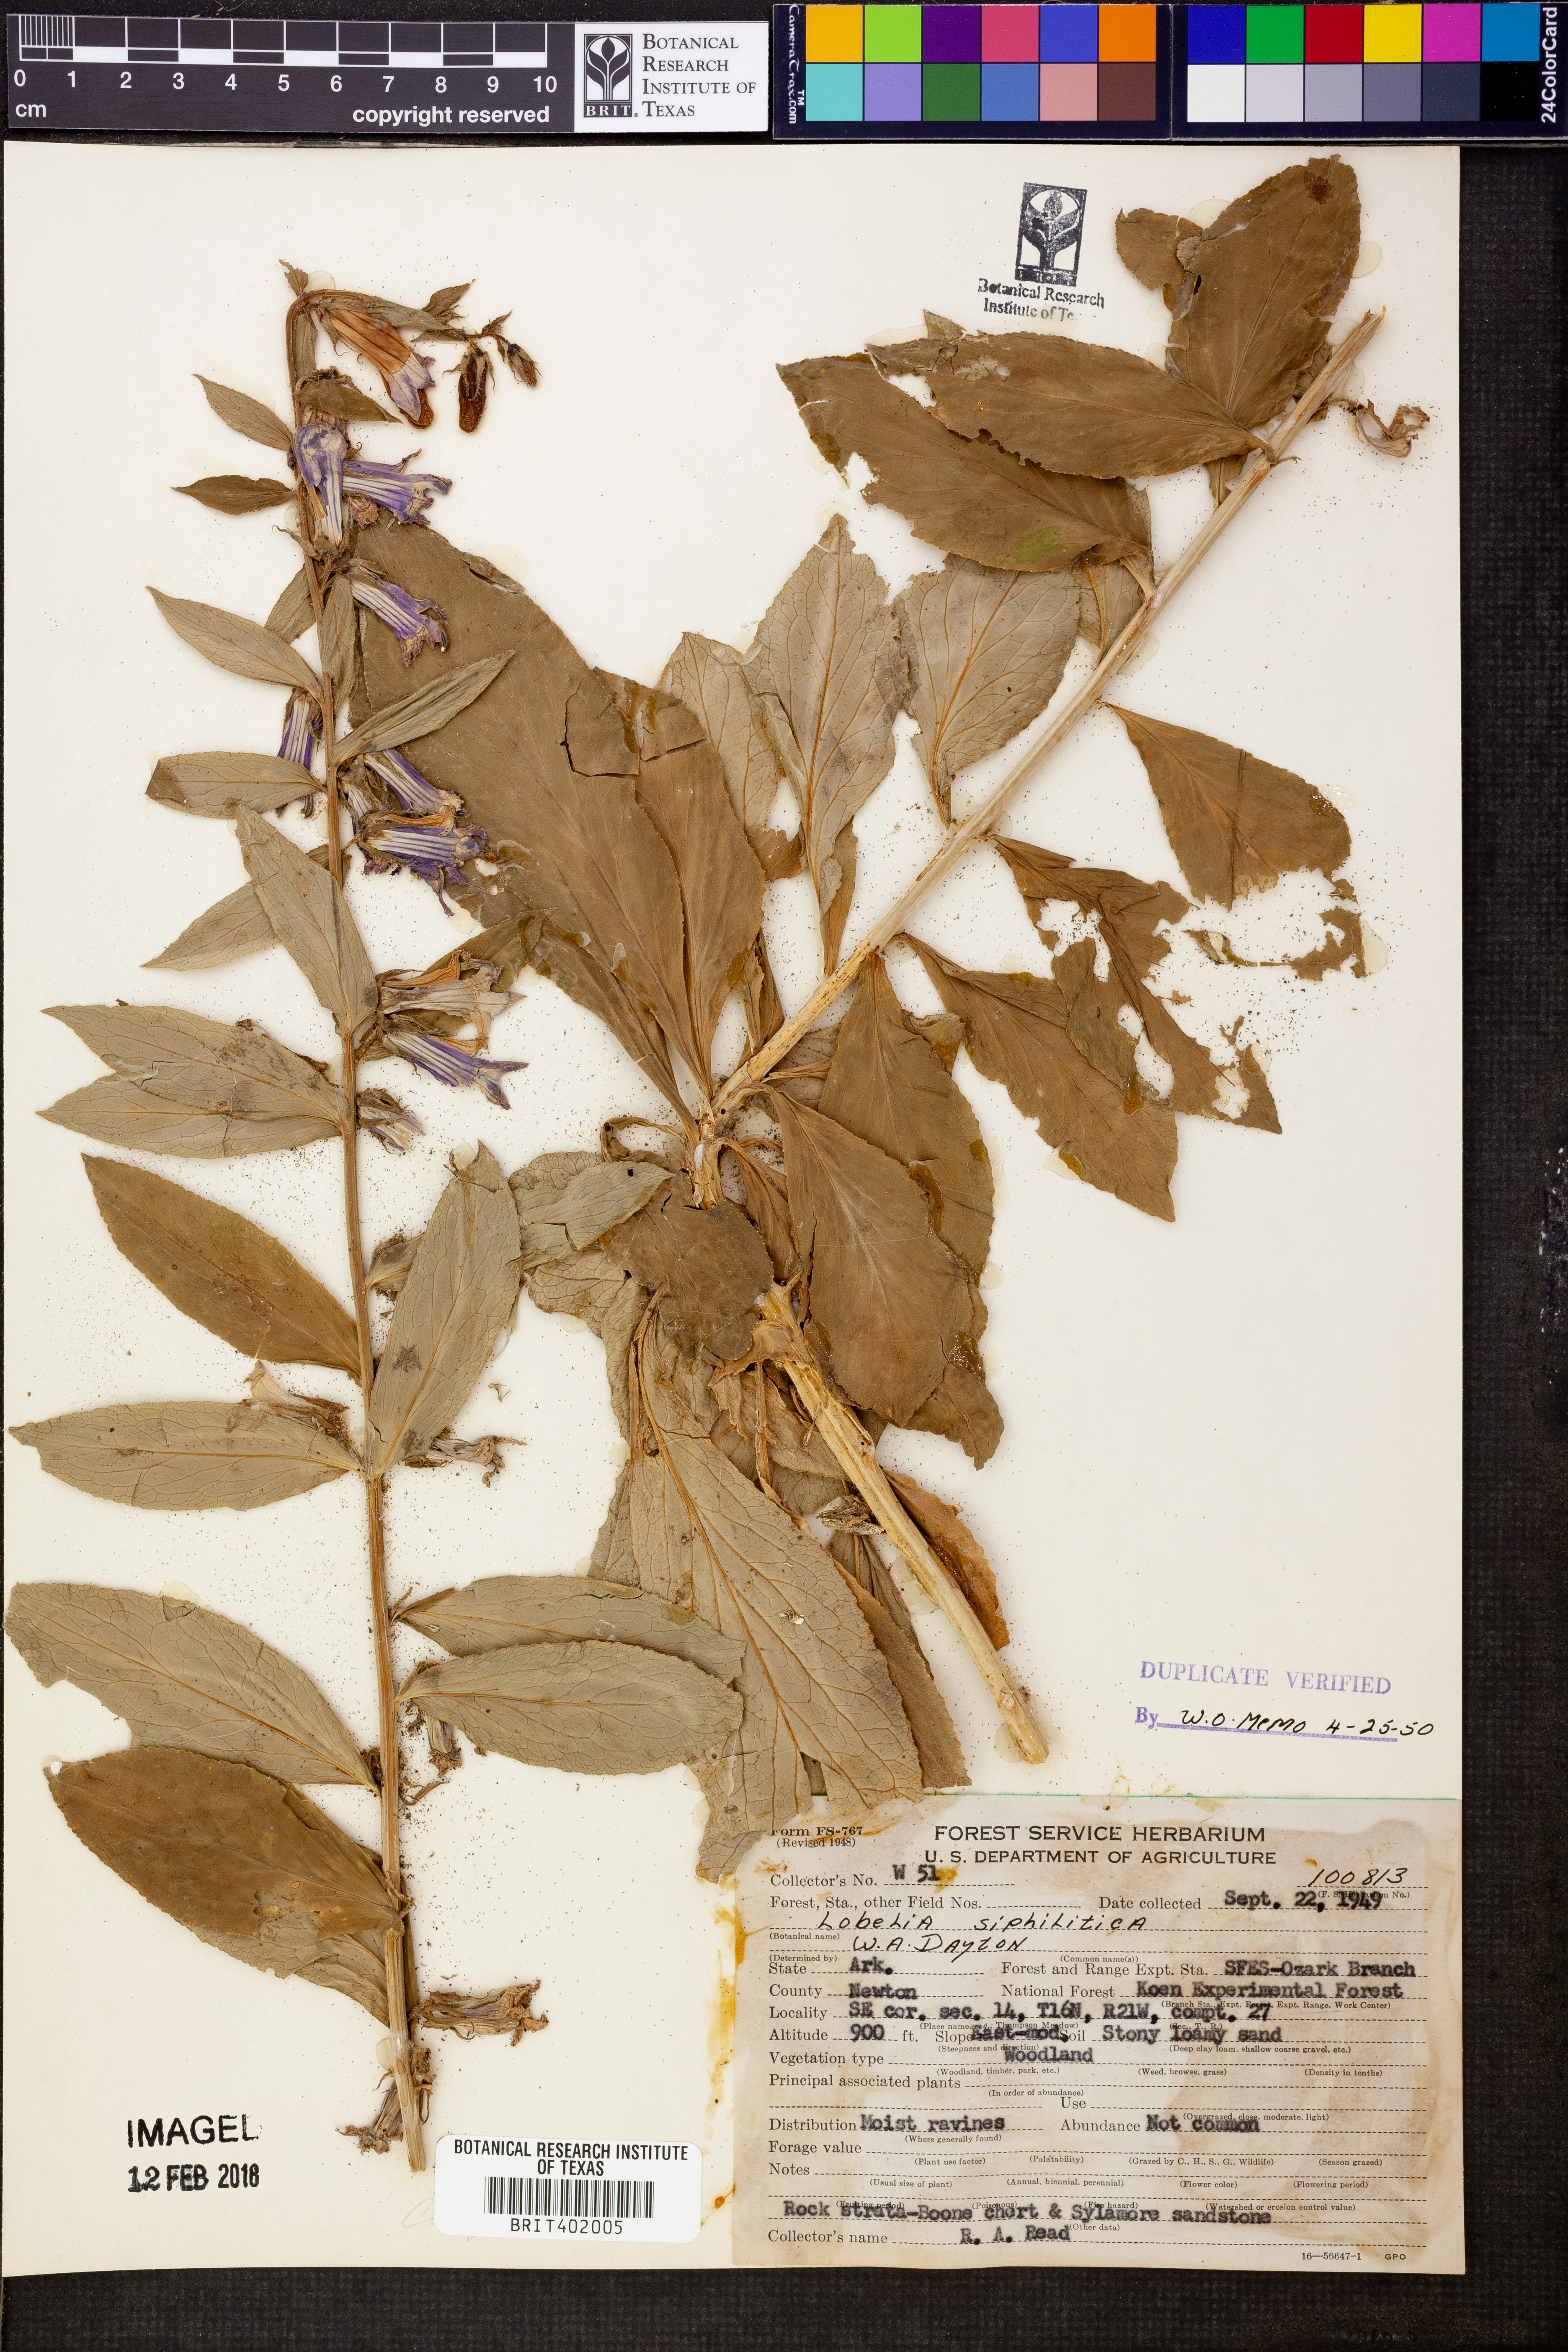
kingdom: Plantae
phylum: Tracheophyta
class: Magnoliopsida
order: Asterales
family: Campanulaceae
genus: Lobelia
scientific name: Lobelia siphilitica
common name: Great lobelia
